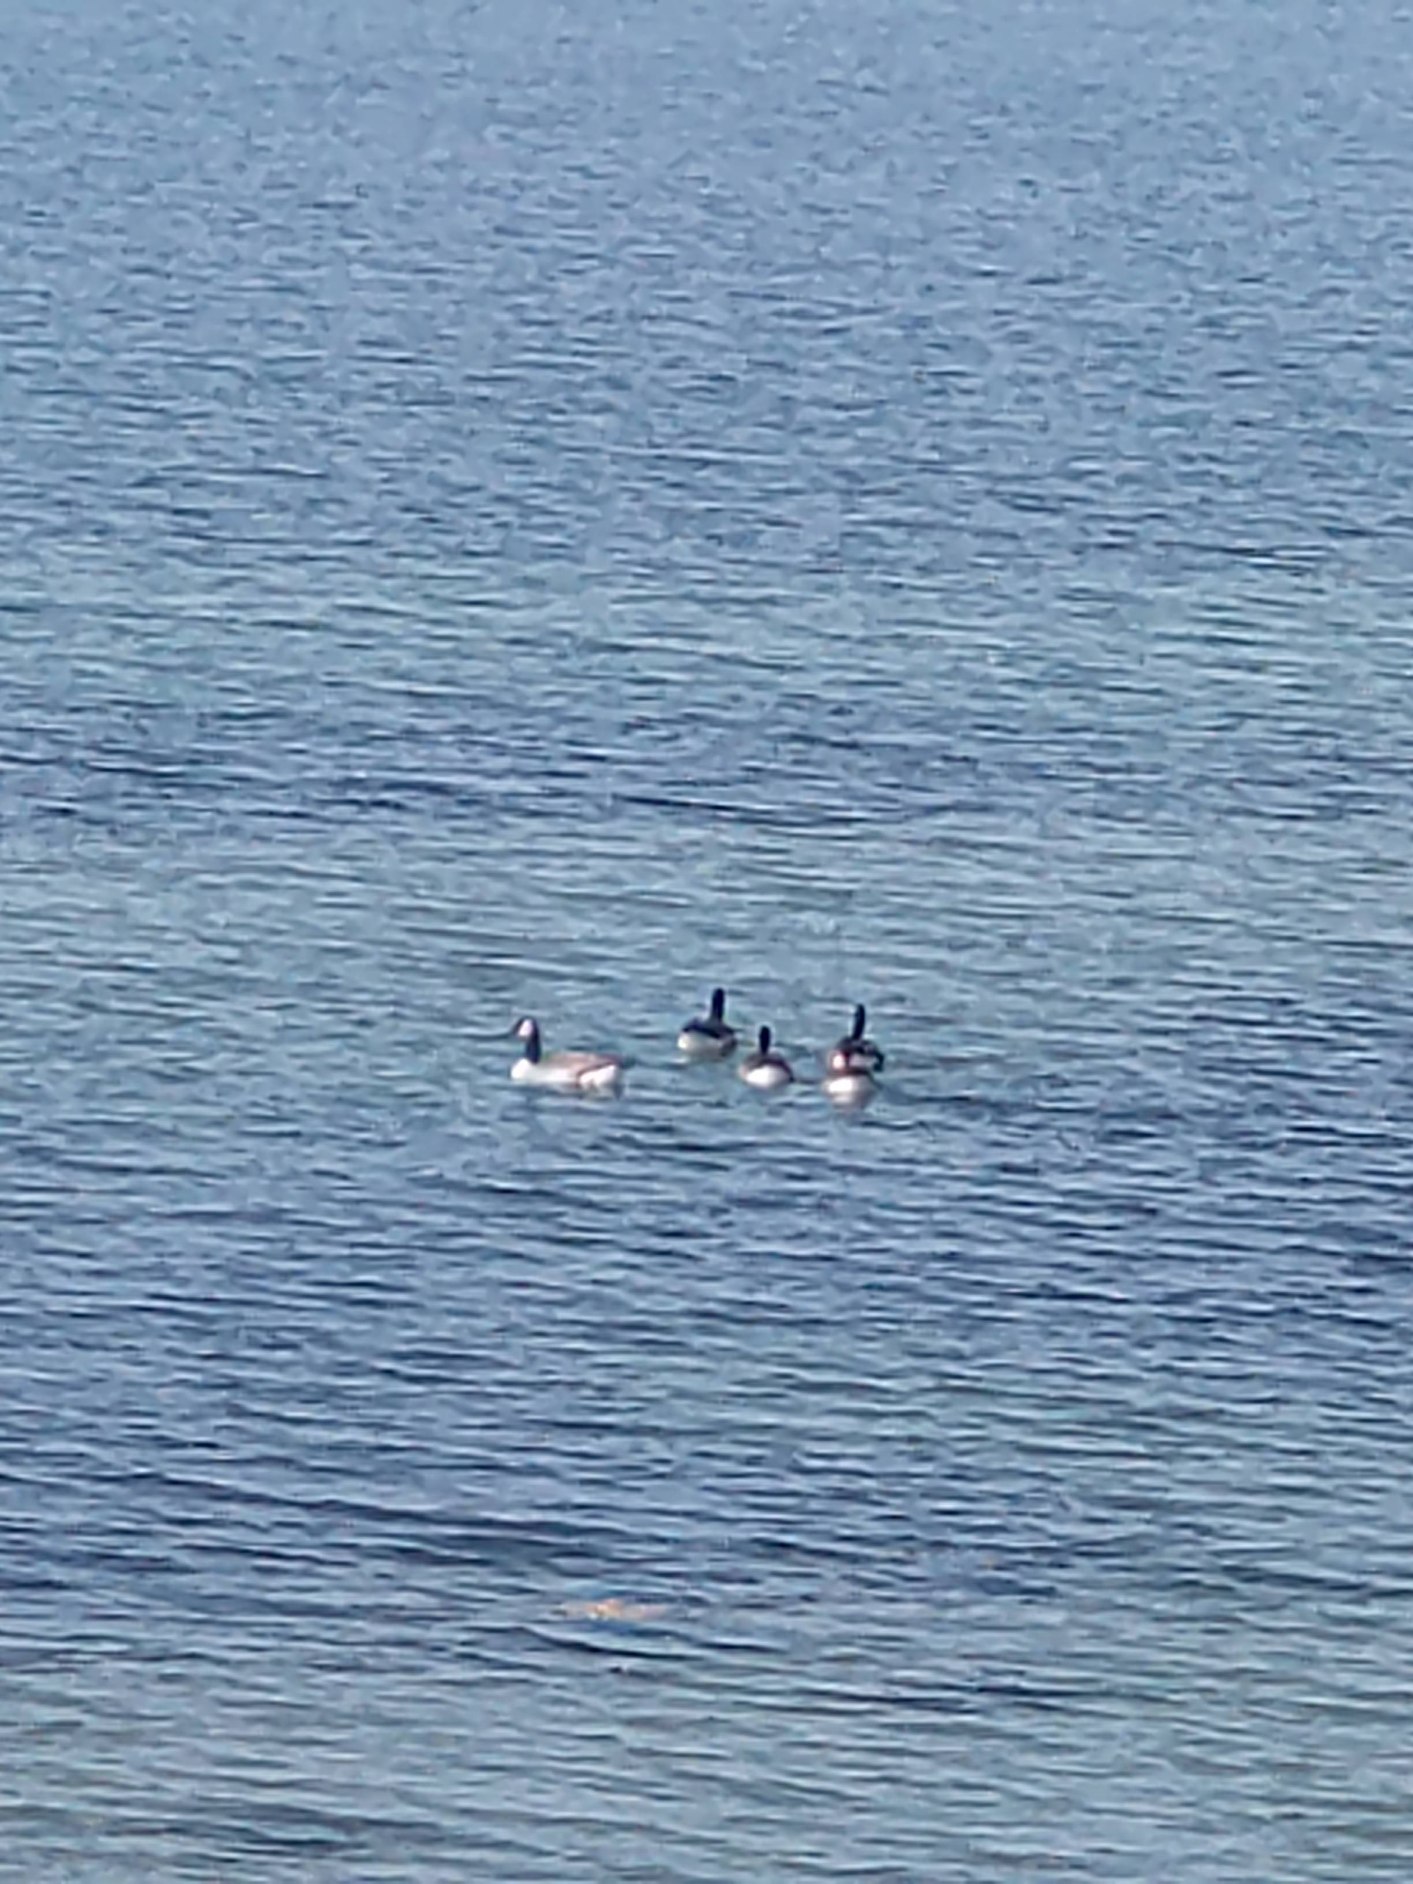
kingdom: Animalia
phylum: Chordata
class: Aves
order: Anseriformes
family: Anatidae
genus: Branta
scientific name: Branta canadensis
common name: Canadagås
